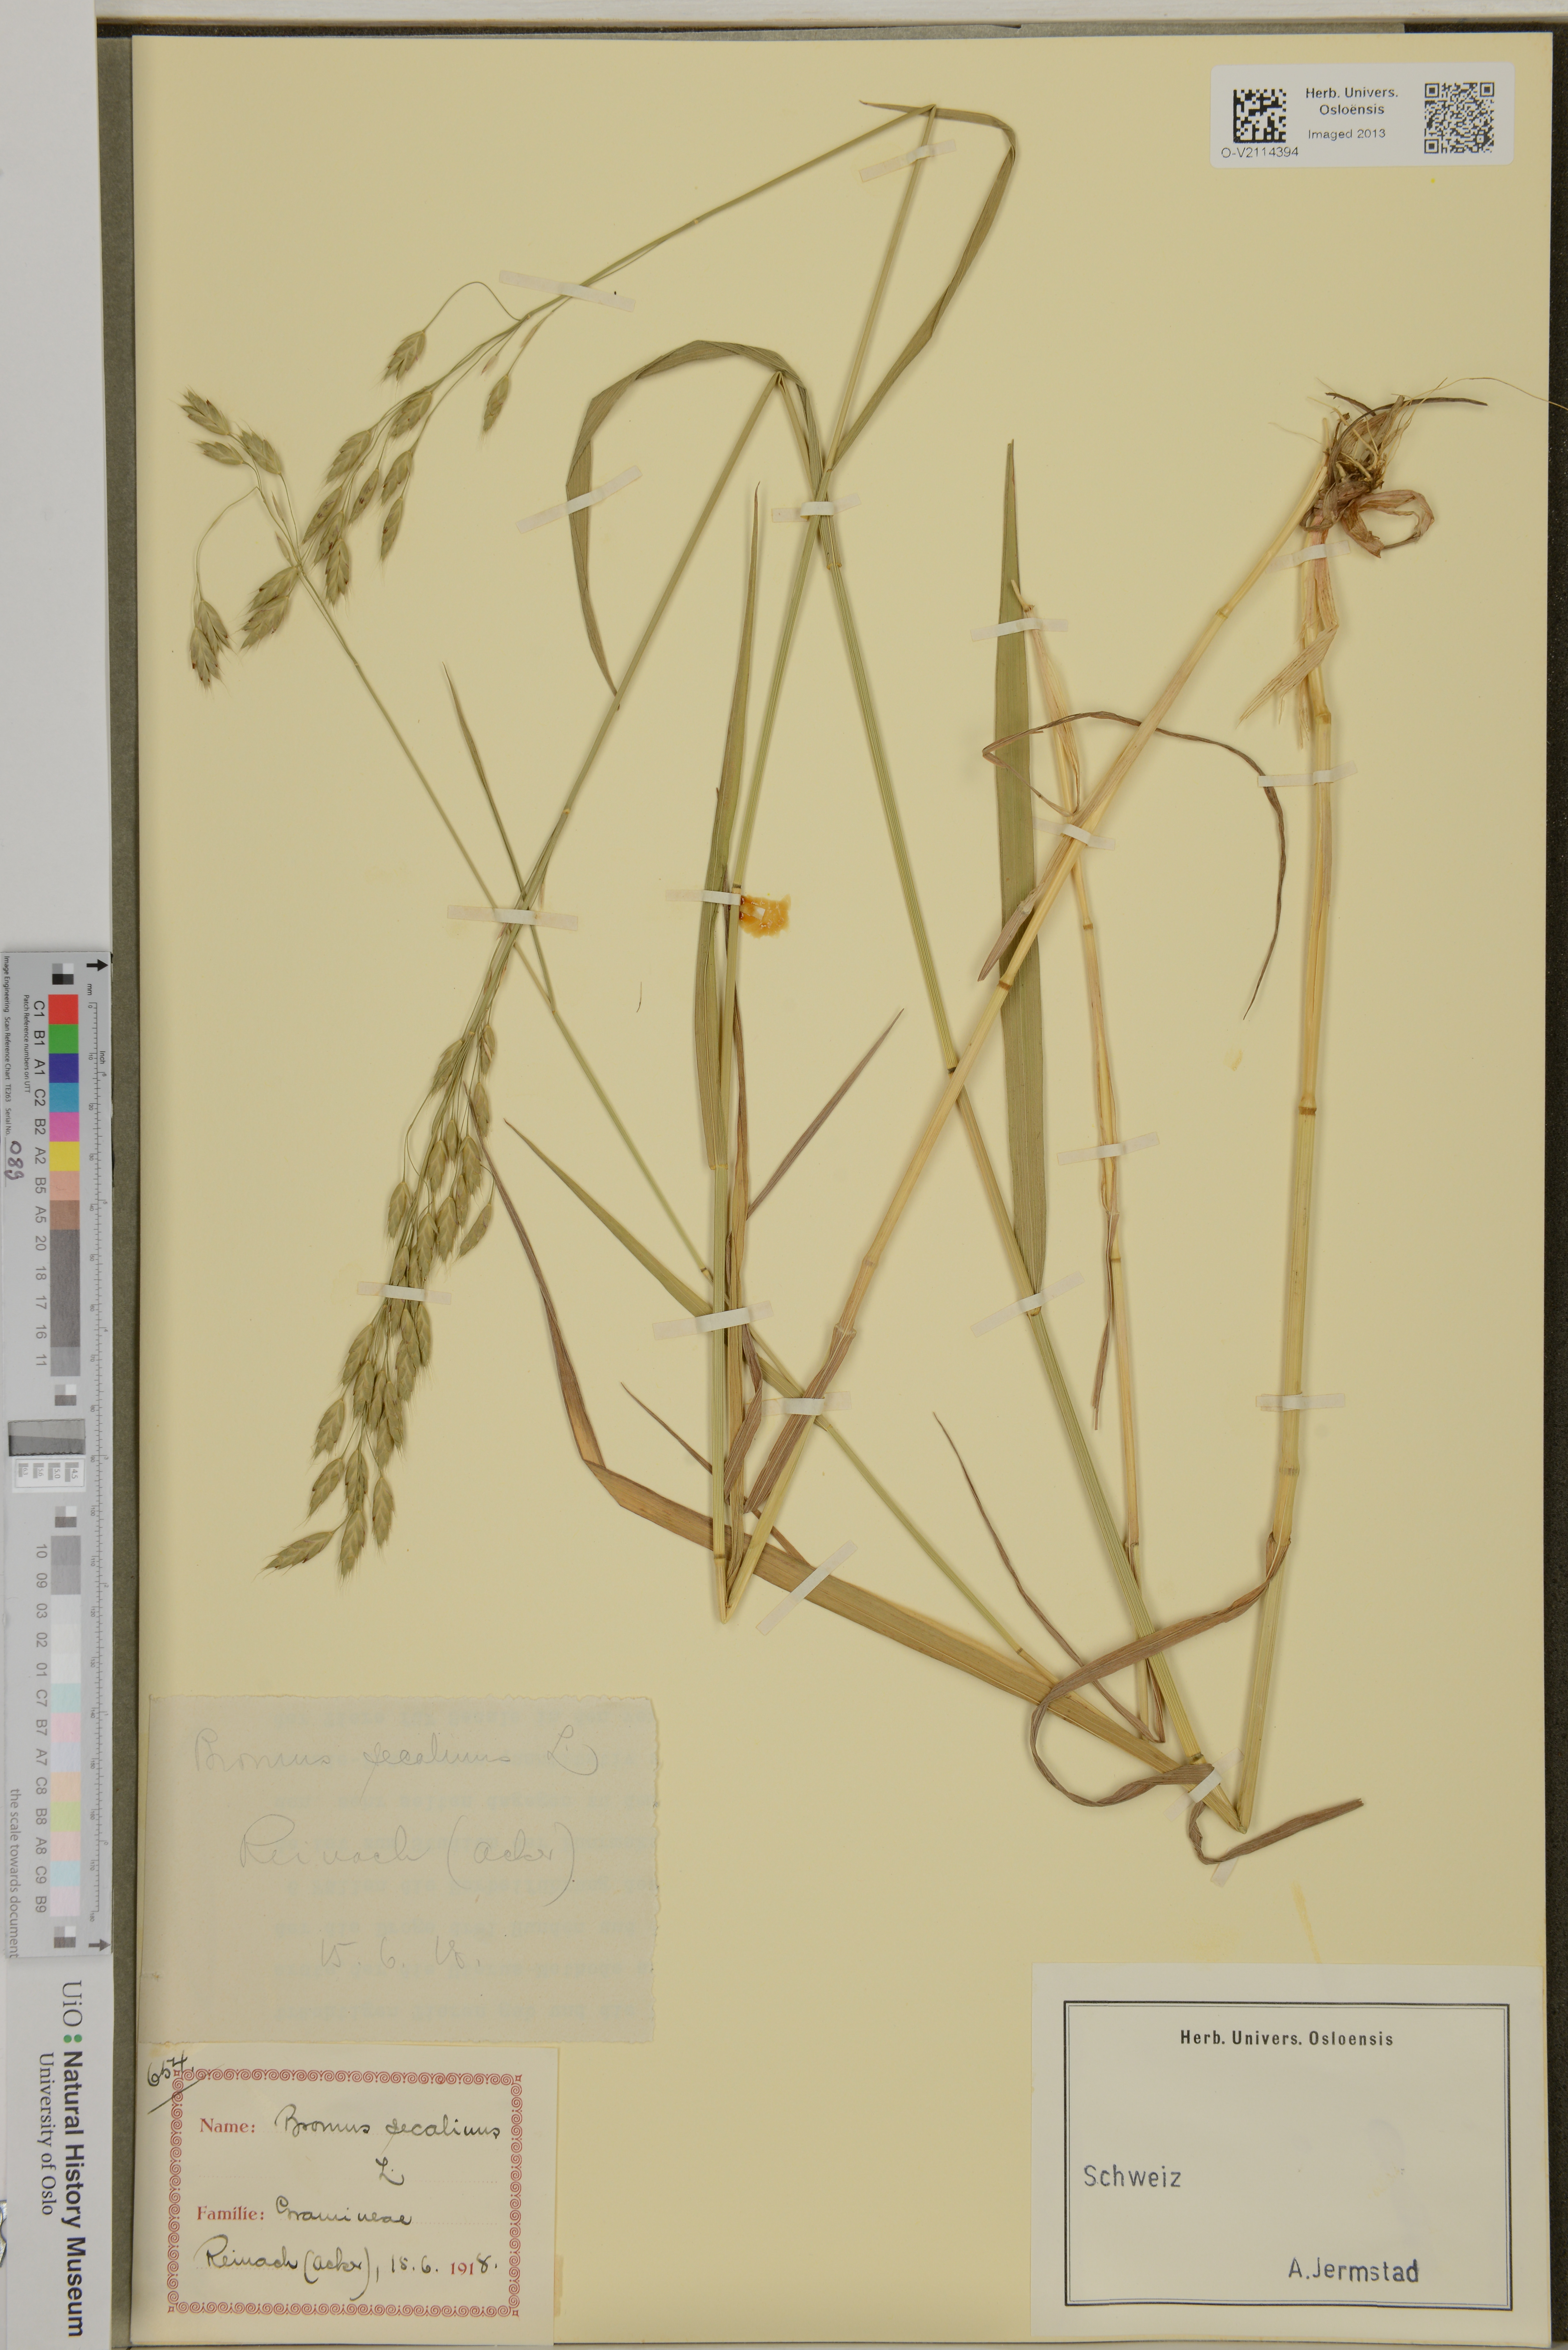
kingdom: Plantae
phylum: Tracheophyta
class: Liliopsida
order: Poales
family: Poaceae
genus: Bromus
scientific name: Bromus secalinus
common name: Rye brome
